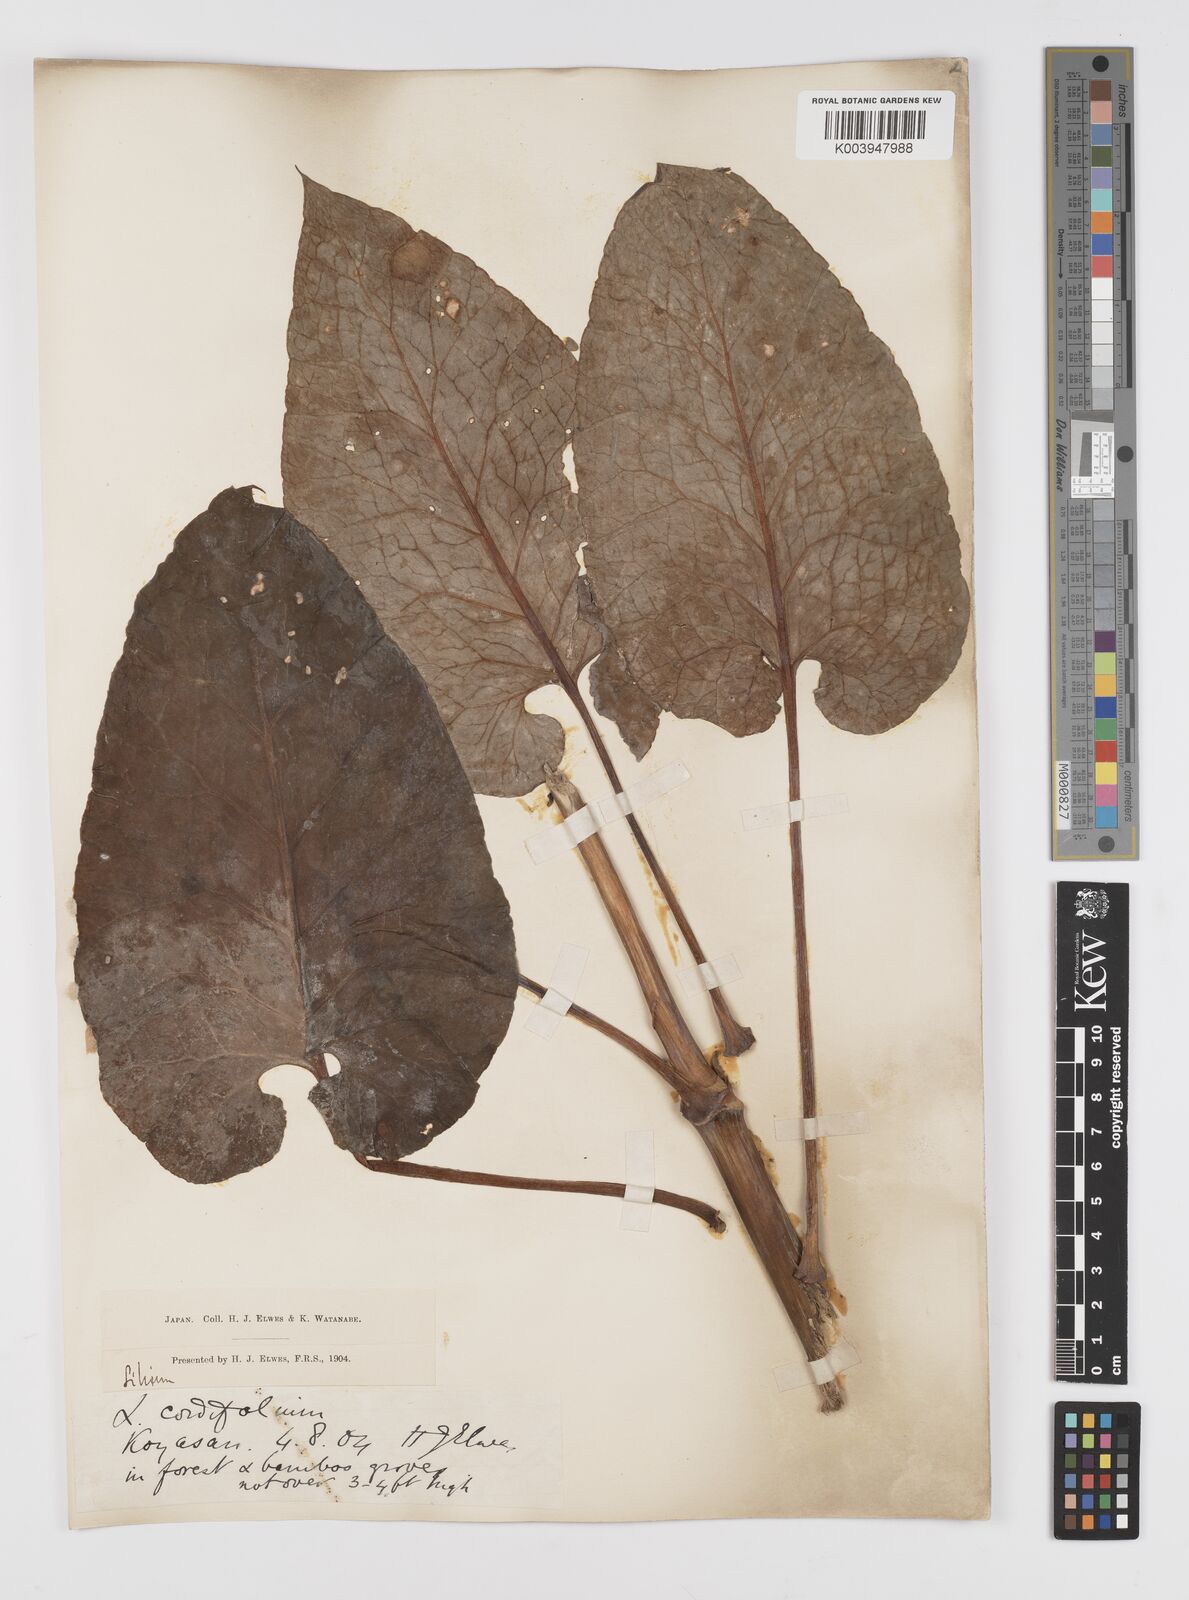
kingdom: Plantae
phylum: Tracheophyta
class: Liliopsida
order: Liliales
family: Liliaceae
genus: Cardiocrinum
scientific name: Cardiocrinum
